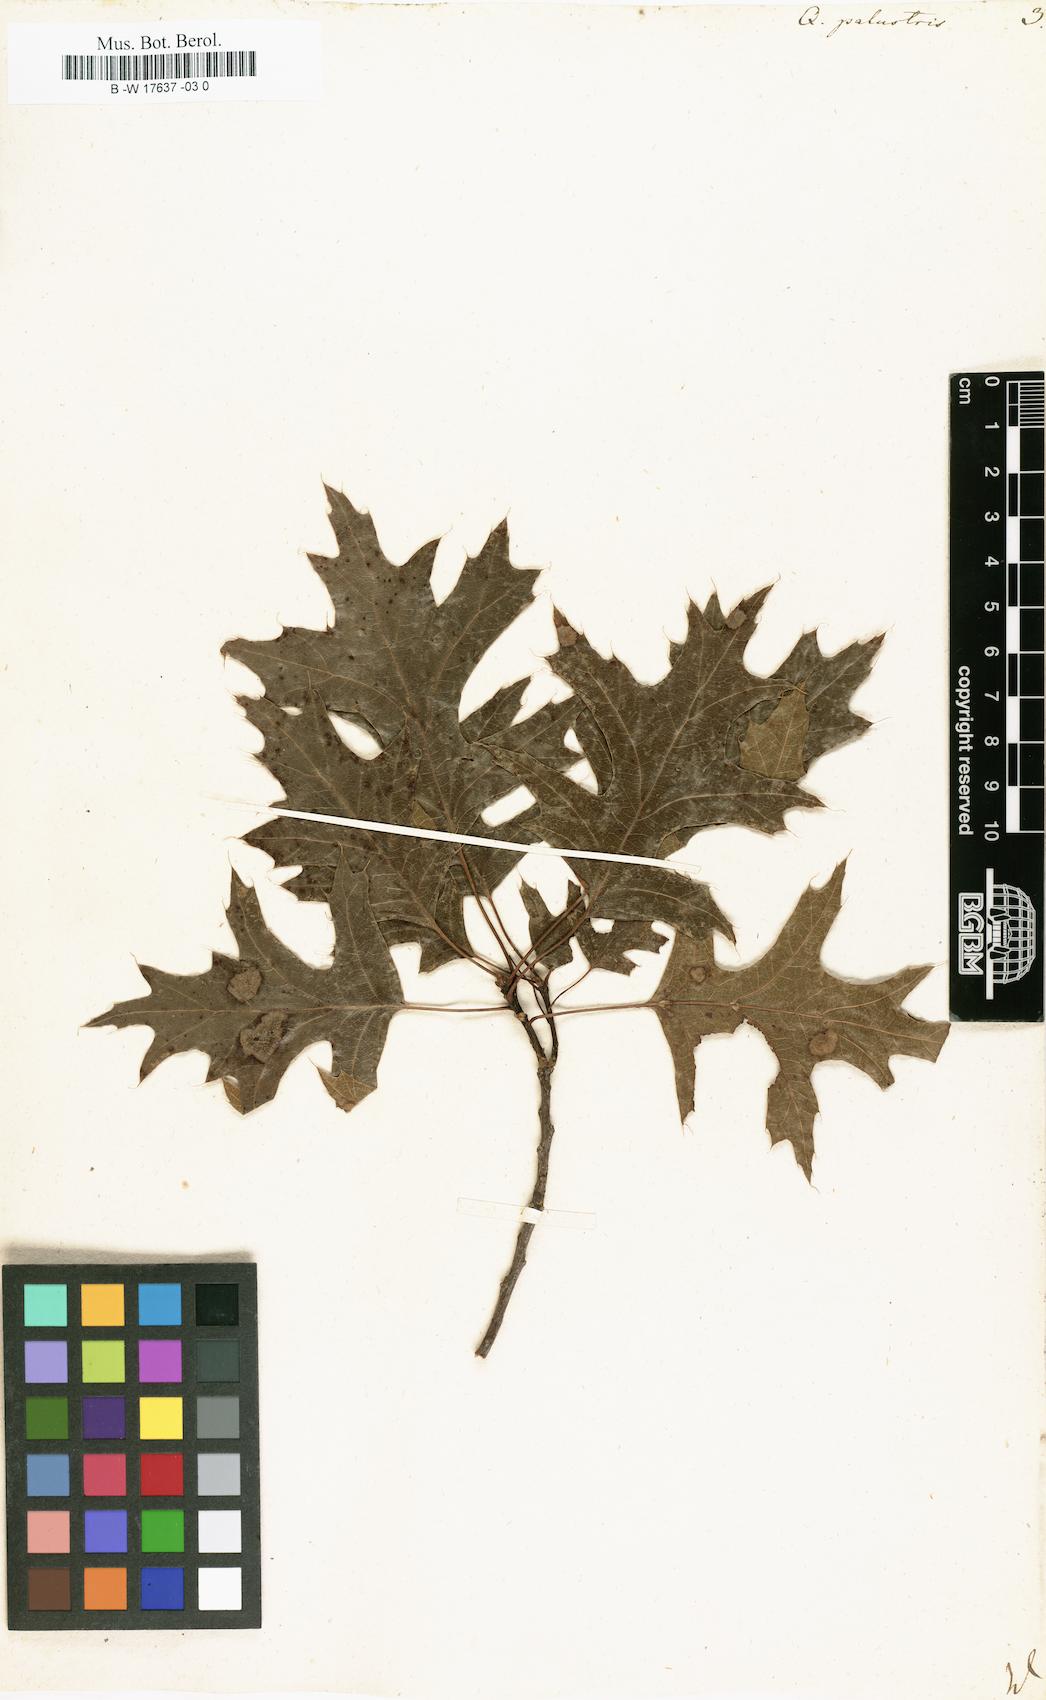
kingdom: Plantae
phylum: Tracheophyta
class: Magnoliopsida
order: Fagales
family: Fagaceae
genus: Quercus
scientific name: Quercus palustris
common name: Pin oak
